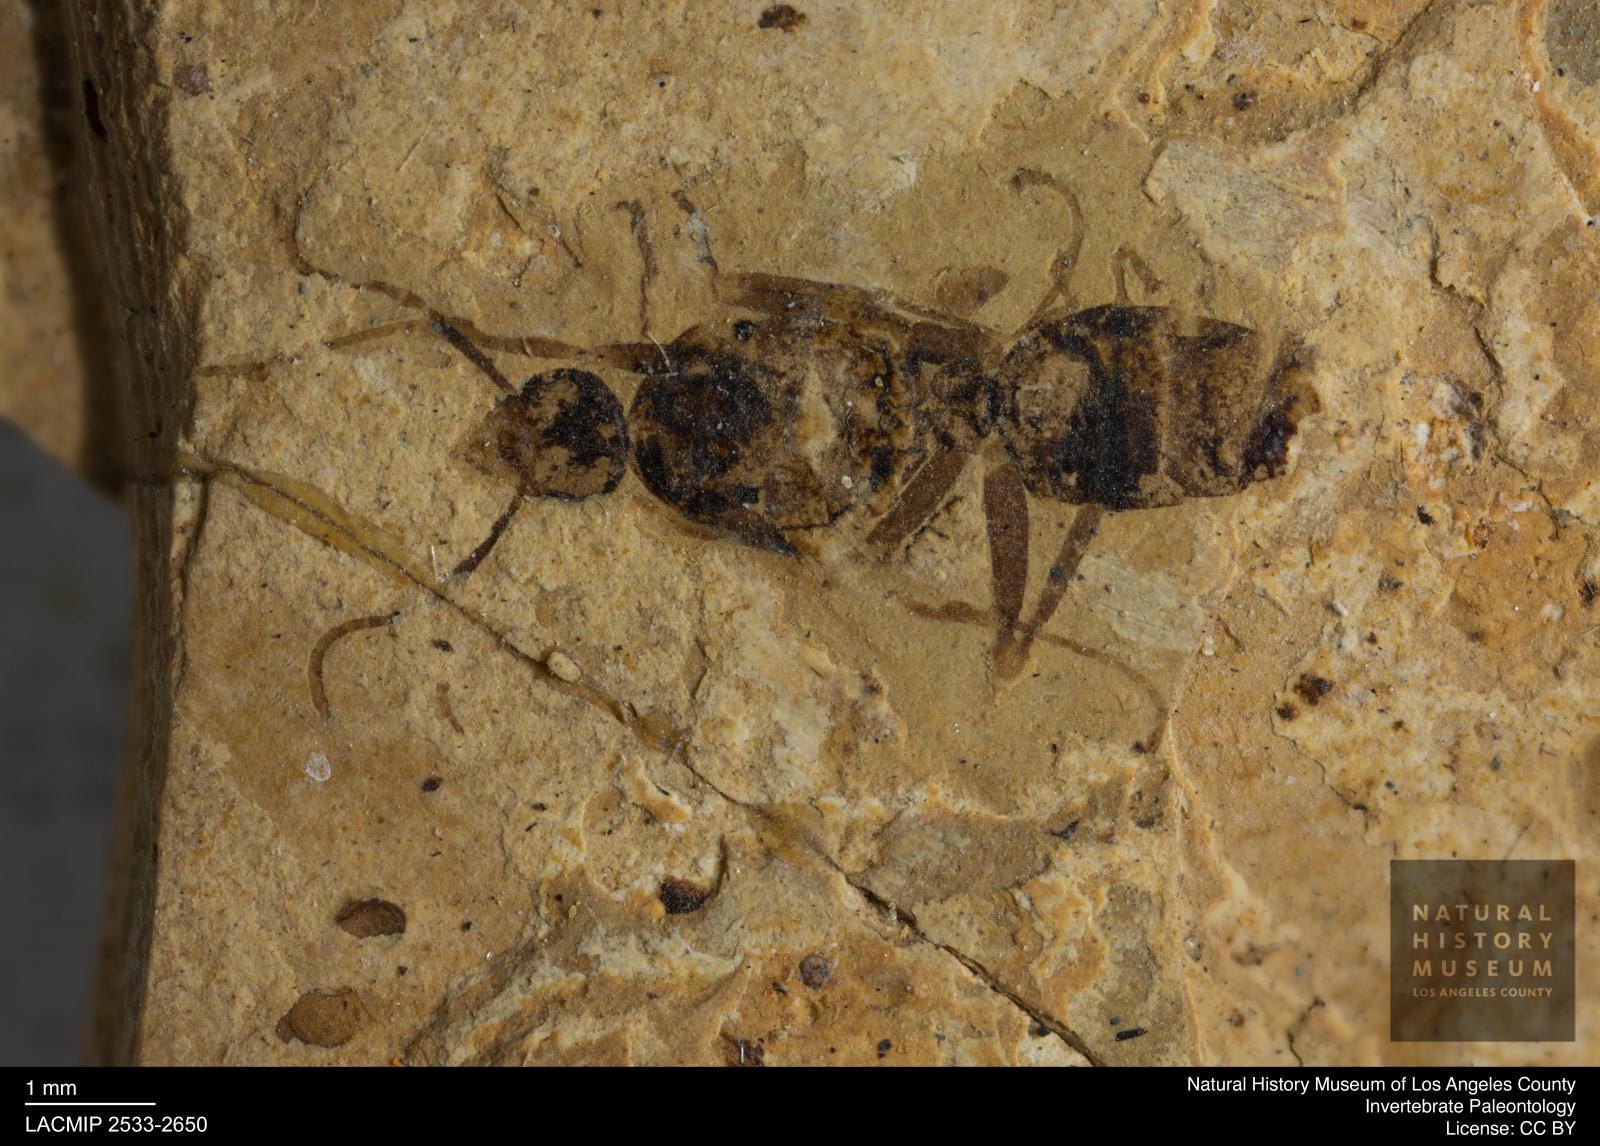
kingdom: Animalia
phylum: Arthropoda
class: Insecta
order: Hymenoptera
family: Formicidae
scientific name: Formicidae
